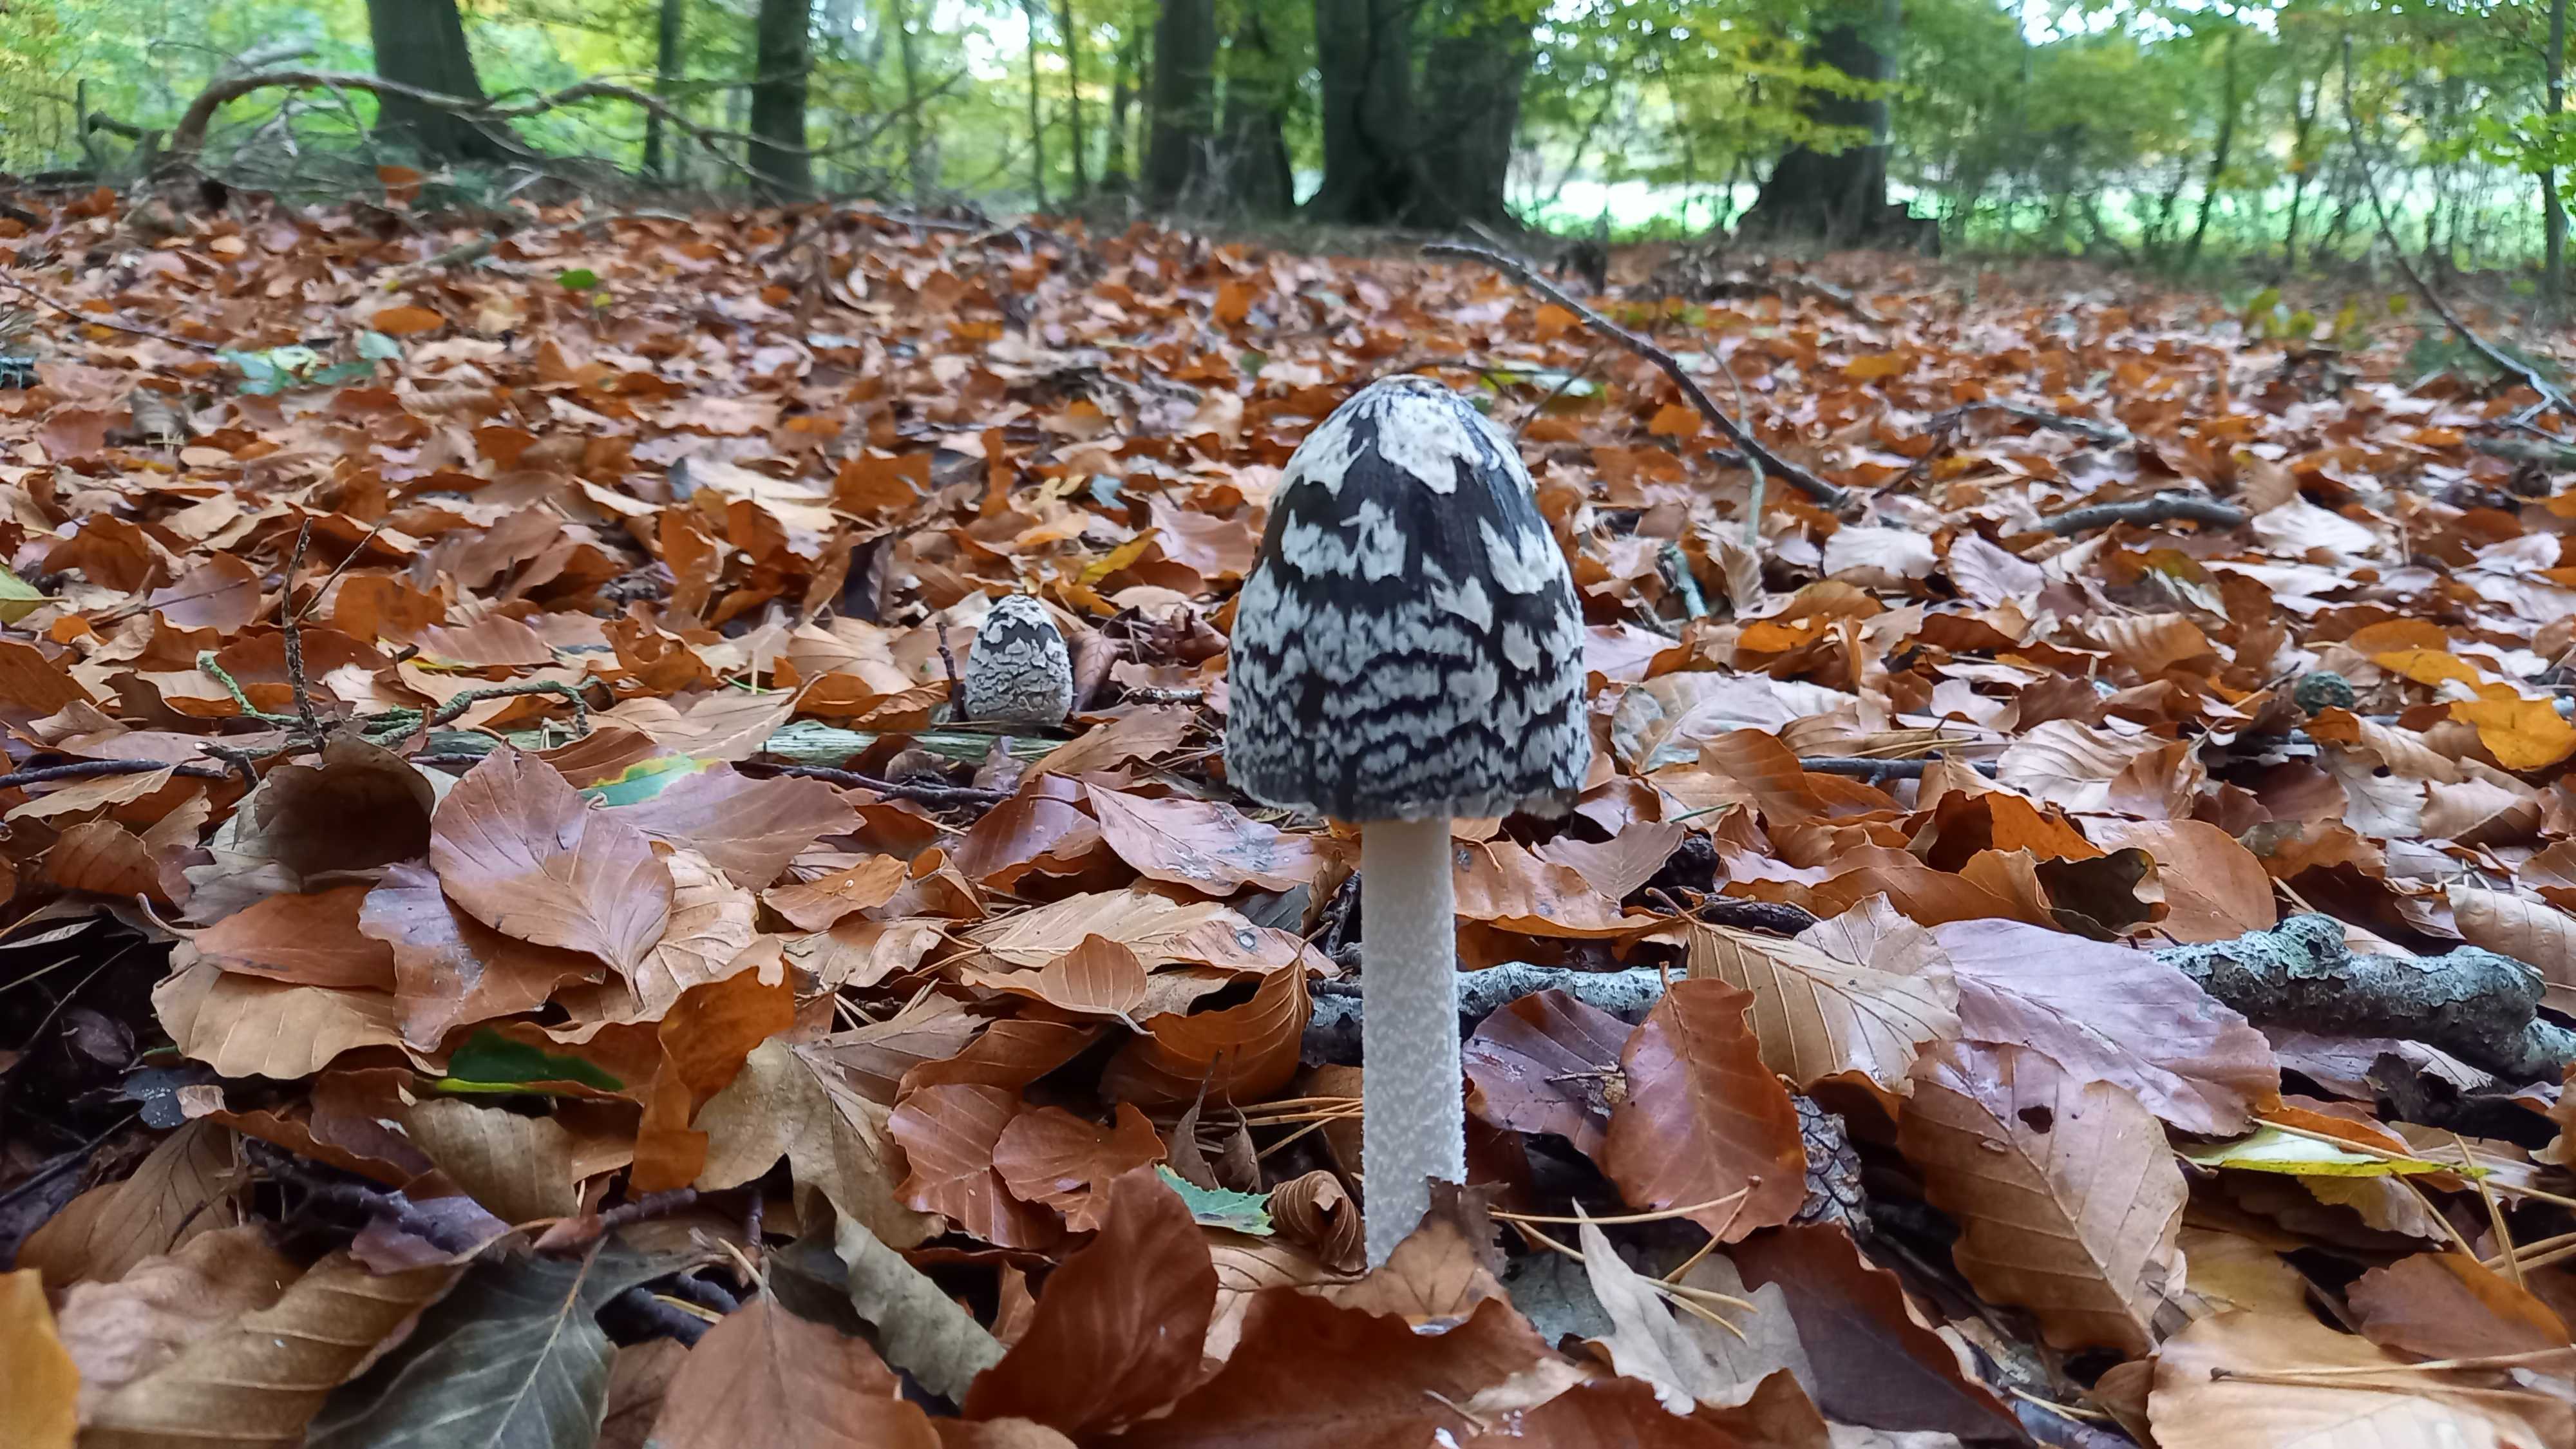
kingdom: Fungi
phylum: Basidiomycota
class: Agaricomycetes
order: Agaricales
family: Psathyrellaceae
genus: Coprinopsis
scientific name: Coprinopsis picacea
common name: skade-blækhat
